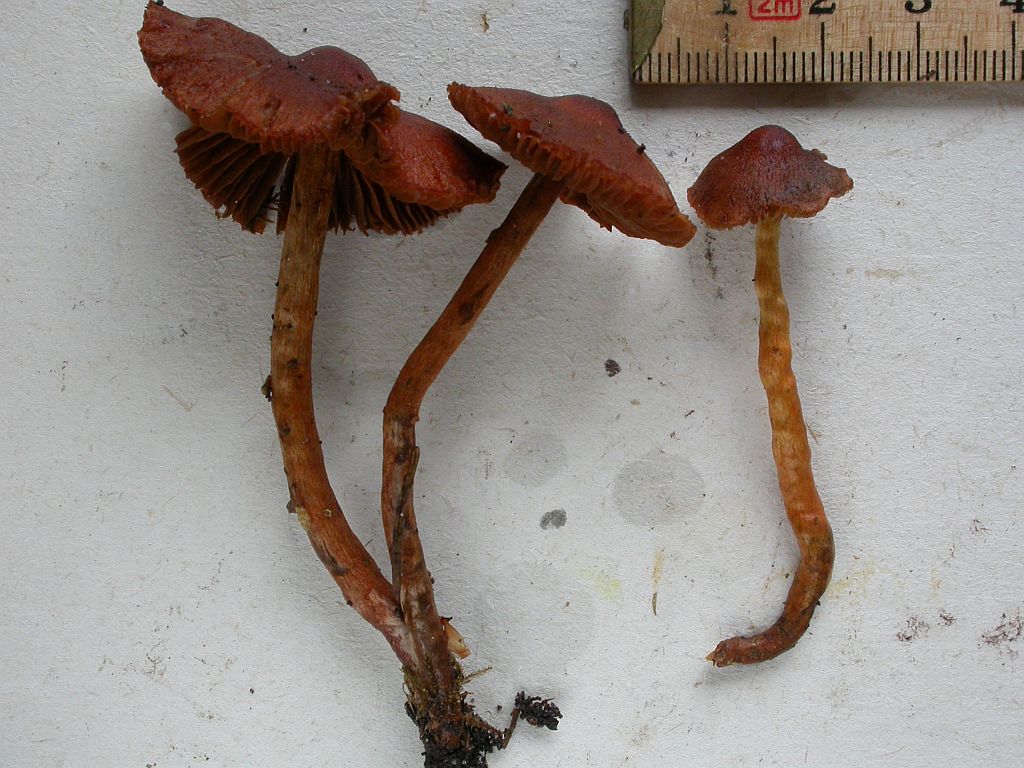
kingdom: Fungi
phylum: Basidiomycota
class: Agaricomycetes
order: Agaricales
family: Cortinariaceae
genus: Cortinarius
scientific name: Cortinarius malicorius
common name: safranpuklet slørhat
